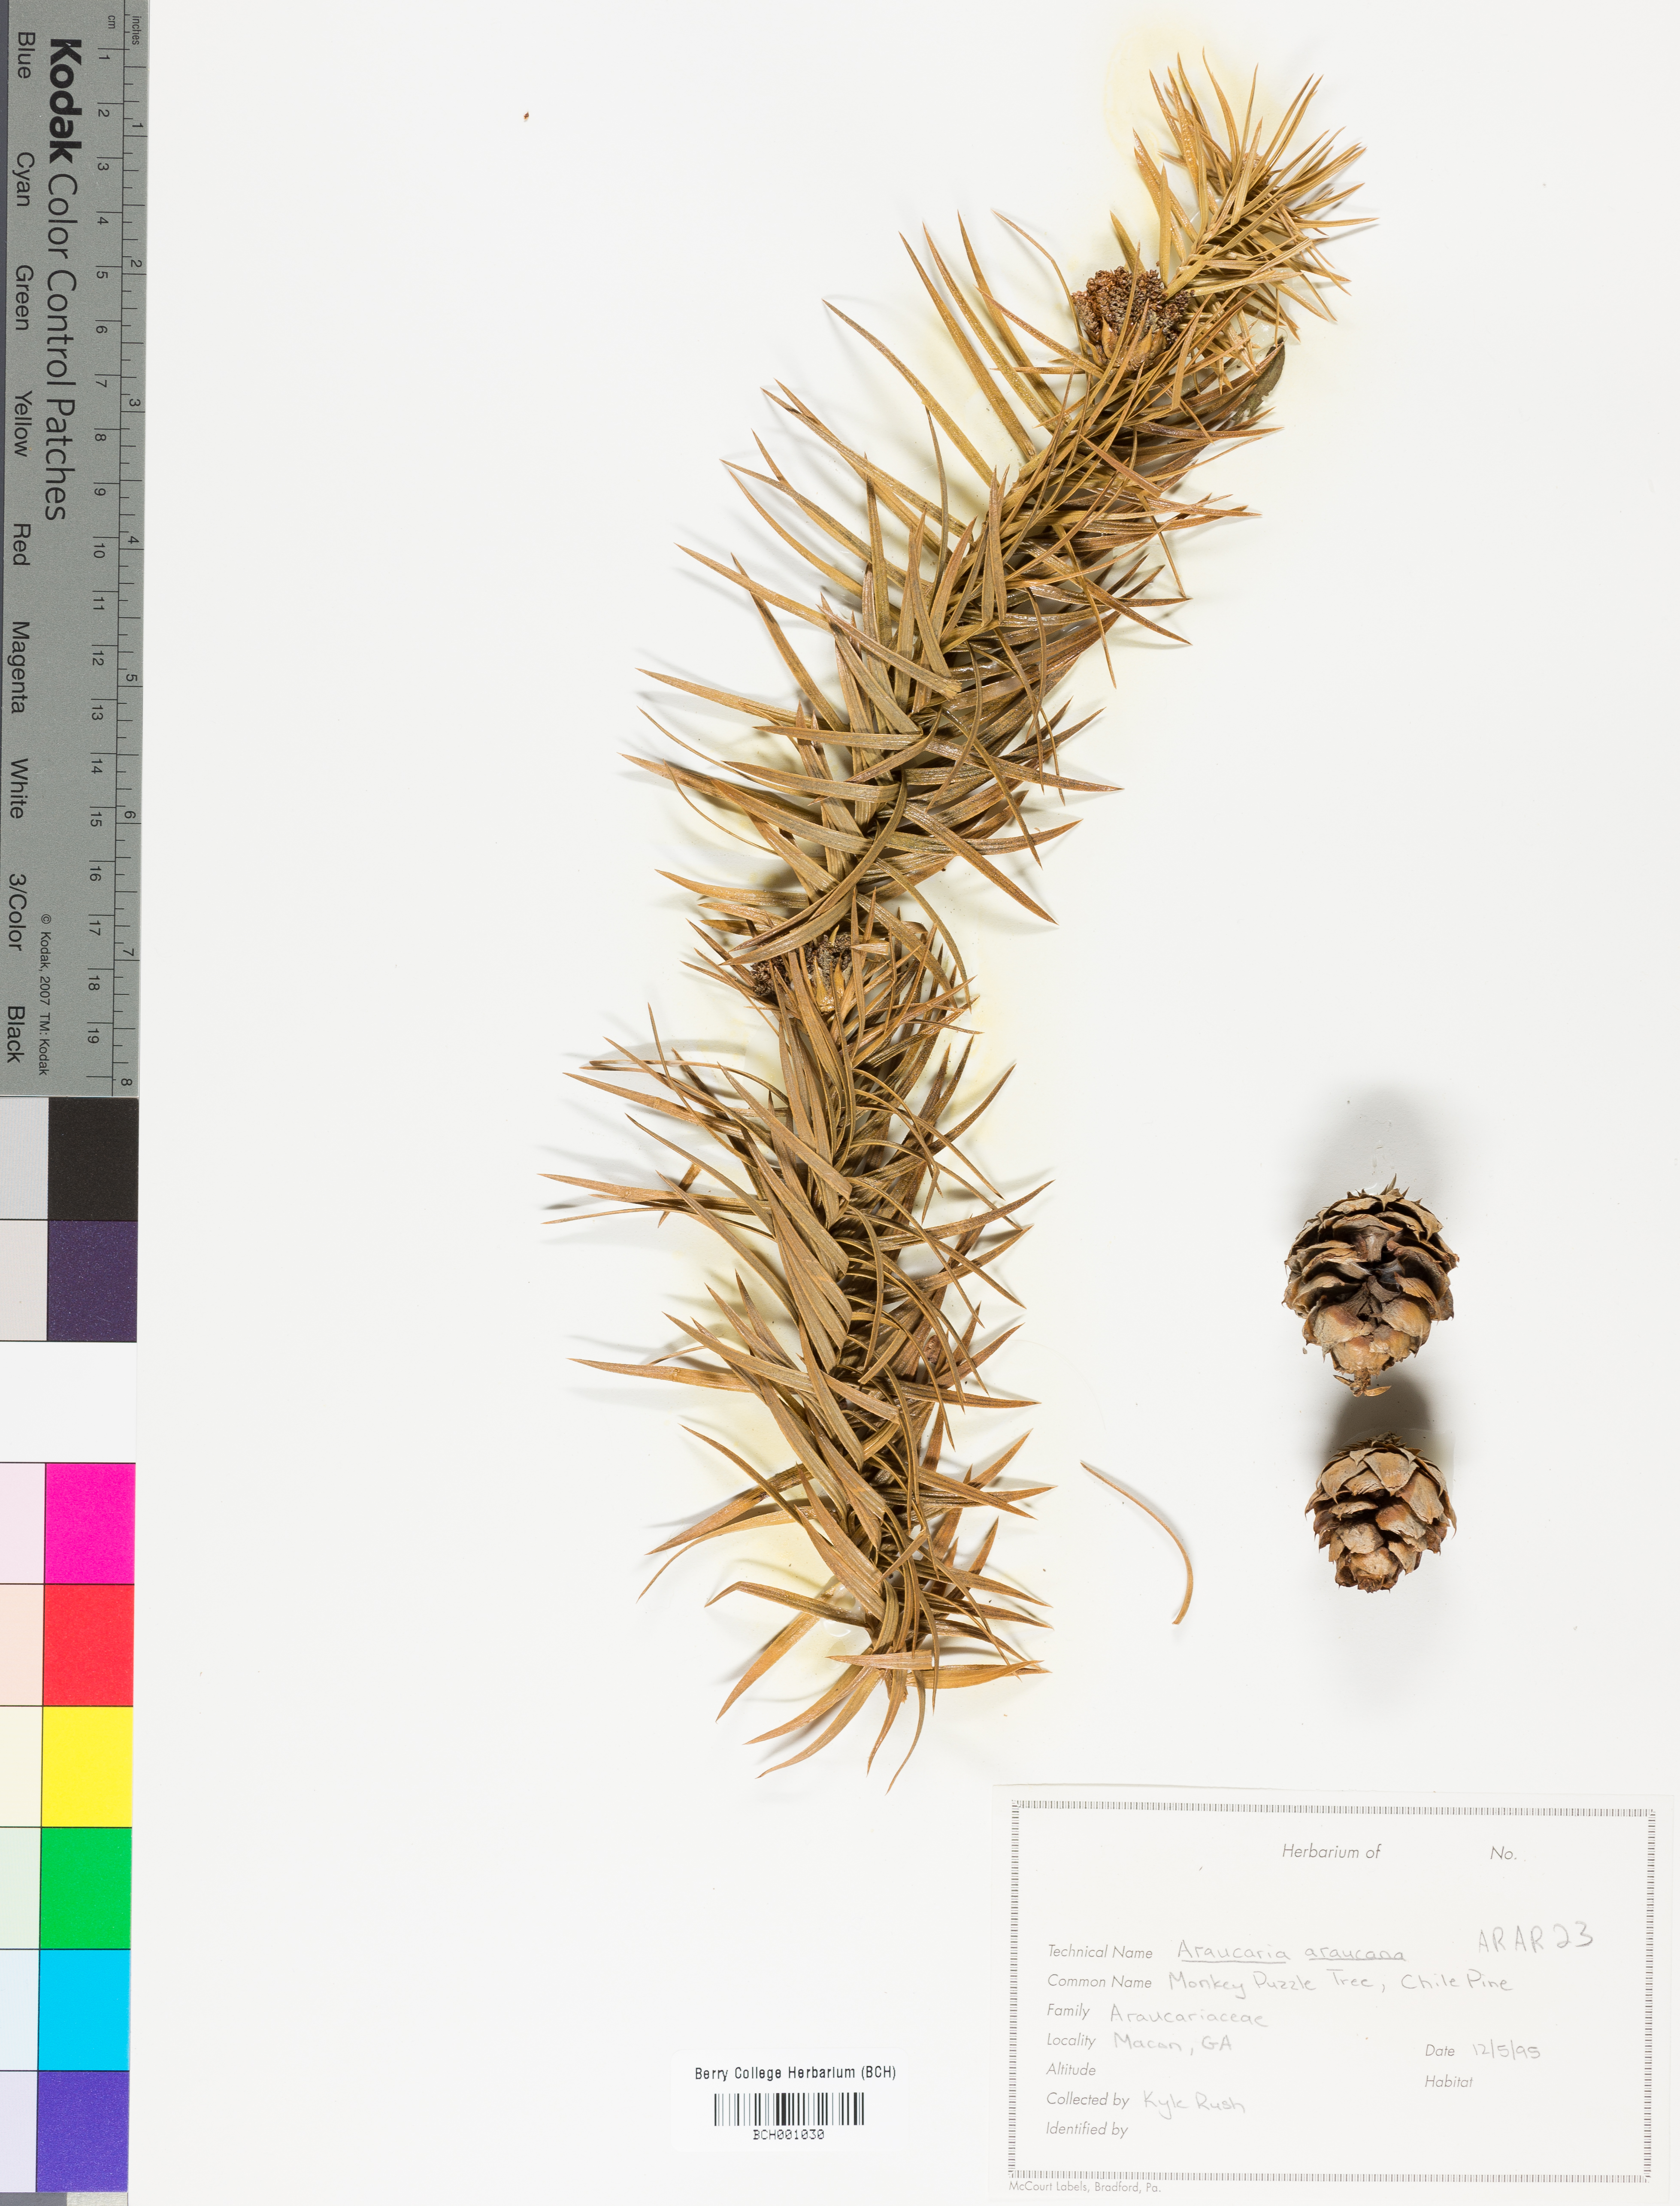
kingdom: Plantae
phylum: Tracheophyta
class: Pinopsida
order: Pinales
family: Araucariaceae
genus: Araucaria
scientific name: Araucaria araucana
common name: Monkey-puzzle
